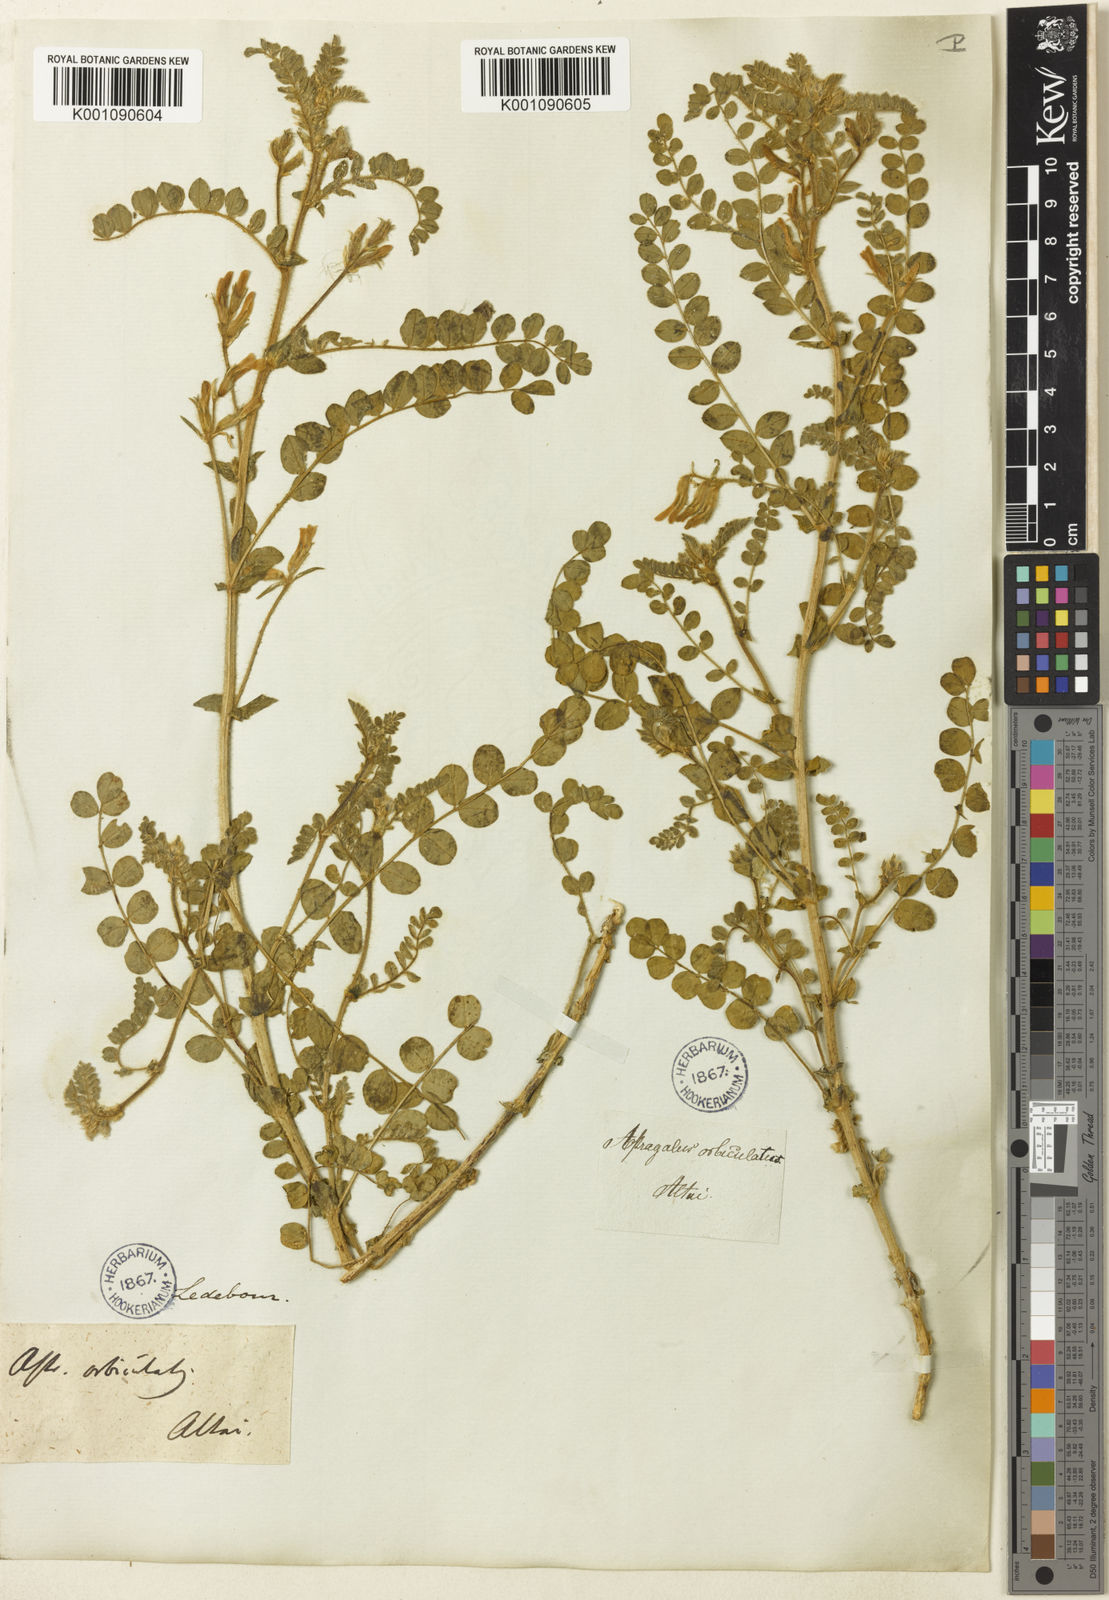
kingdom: Plantae
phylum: Tracheophyta
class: Magnoliopsida
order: Fabales
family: Fabaceae
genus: Astragalus
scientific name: Astragalus
